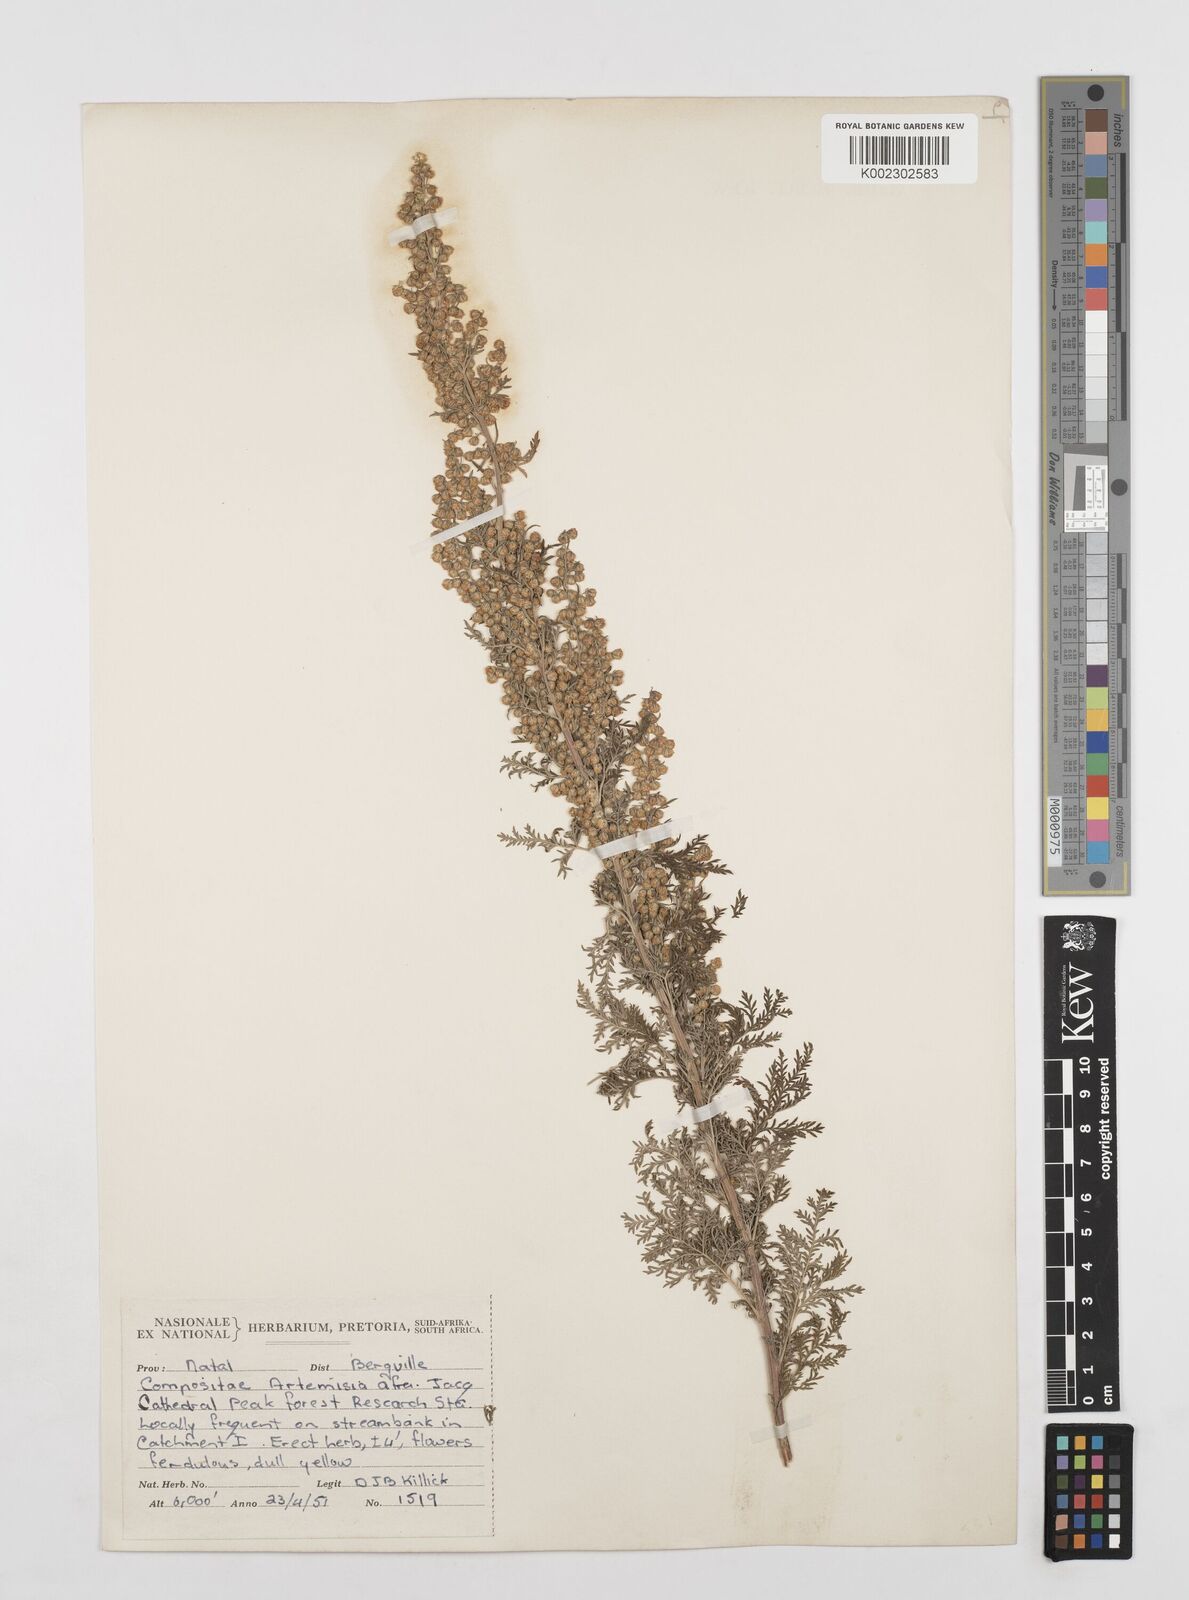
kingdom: Plantae
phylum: Tracheophyta
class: Magnoliopsida
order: Asterales
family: Asteraceae
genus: Artemisia
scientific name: Artemisia afra
